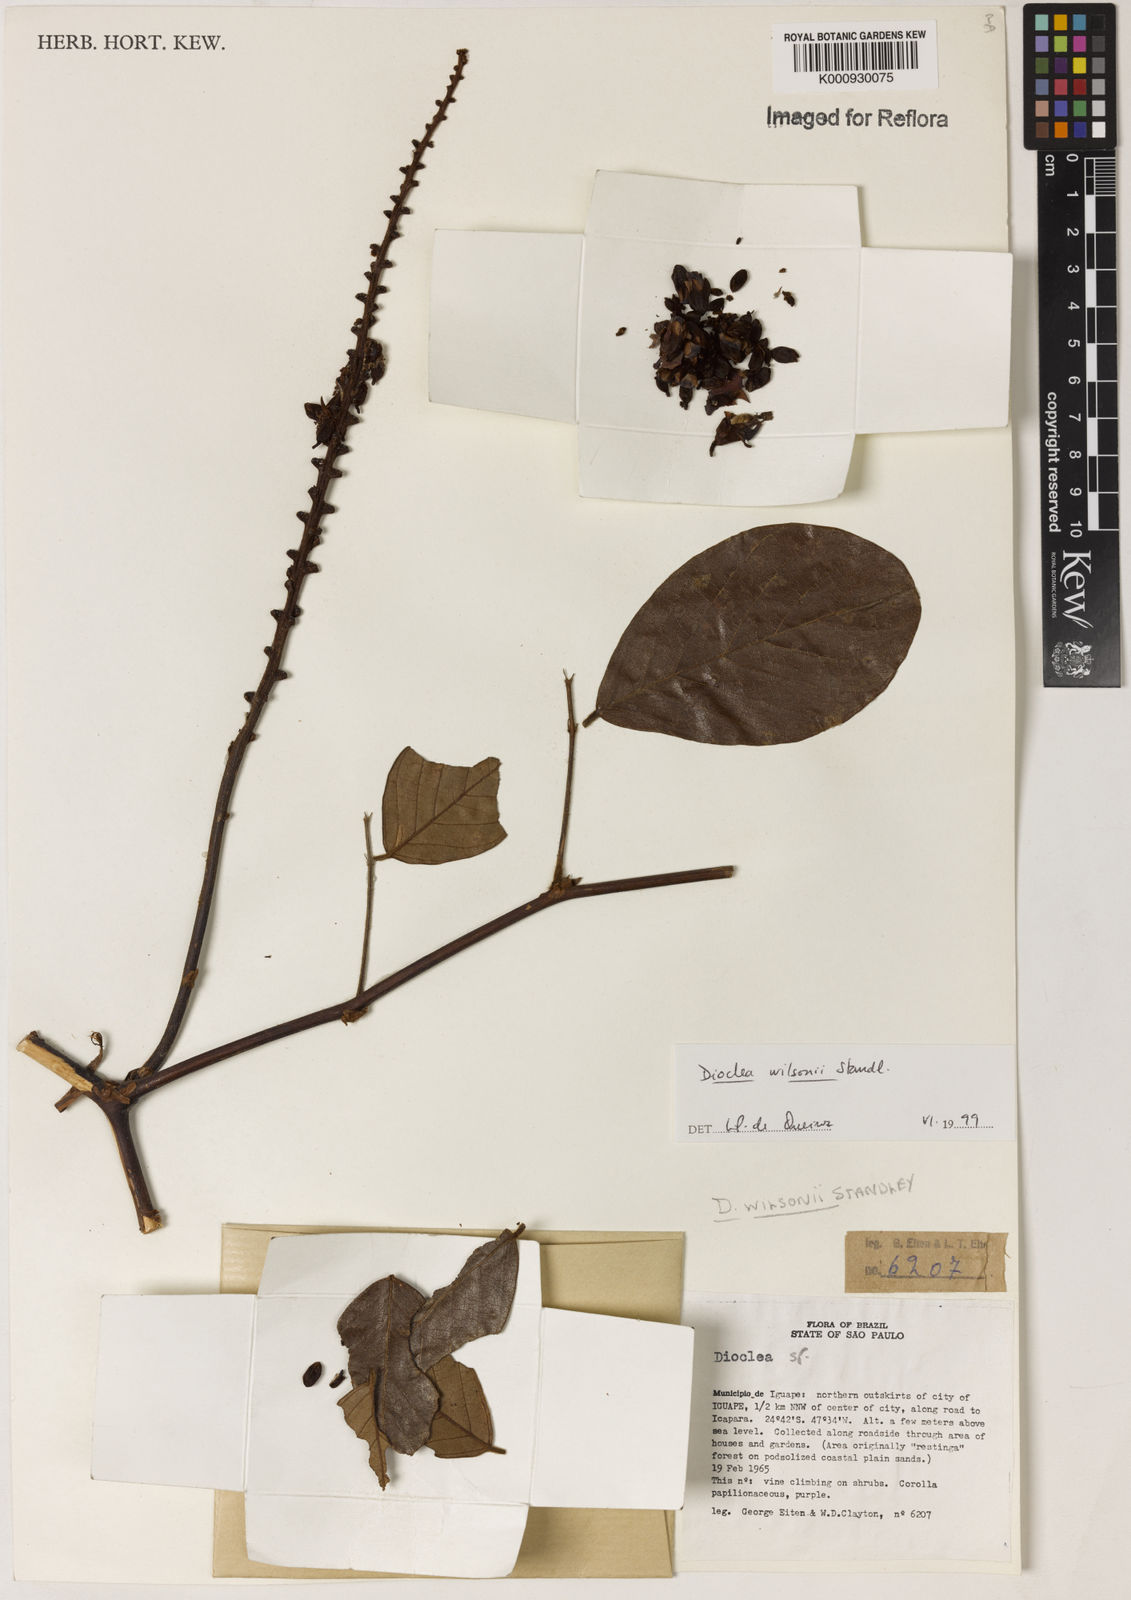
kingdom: Plantae
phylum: Tracheophyta
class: Magnoliopsida
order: Fabales
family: Fabaceae
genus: Macropsychanthus
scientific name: Macropsychanthus wilsonii
